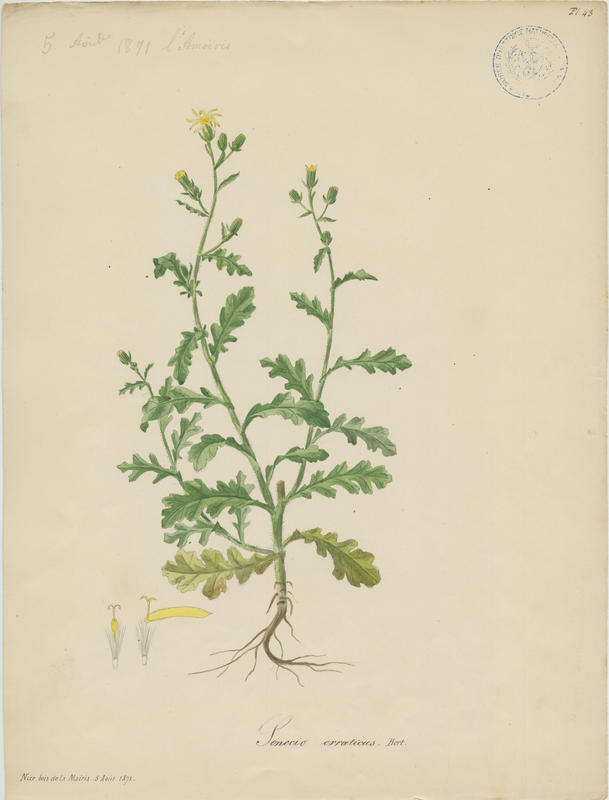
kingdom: Plantae
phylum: Tracheophyta
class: Magnoliopsida
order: Asterales
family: Asteraceae
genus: Jacobaea
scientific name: Jacobaea erratica
